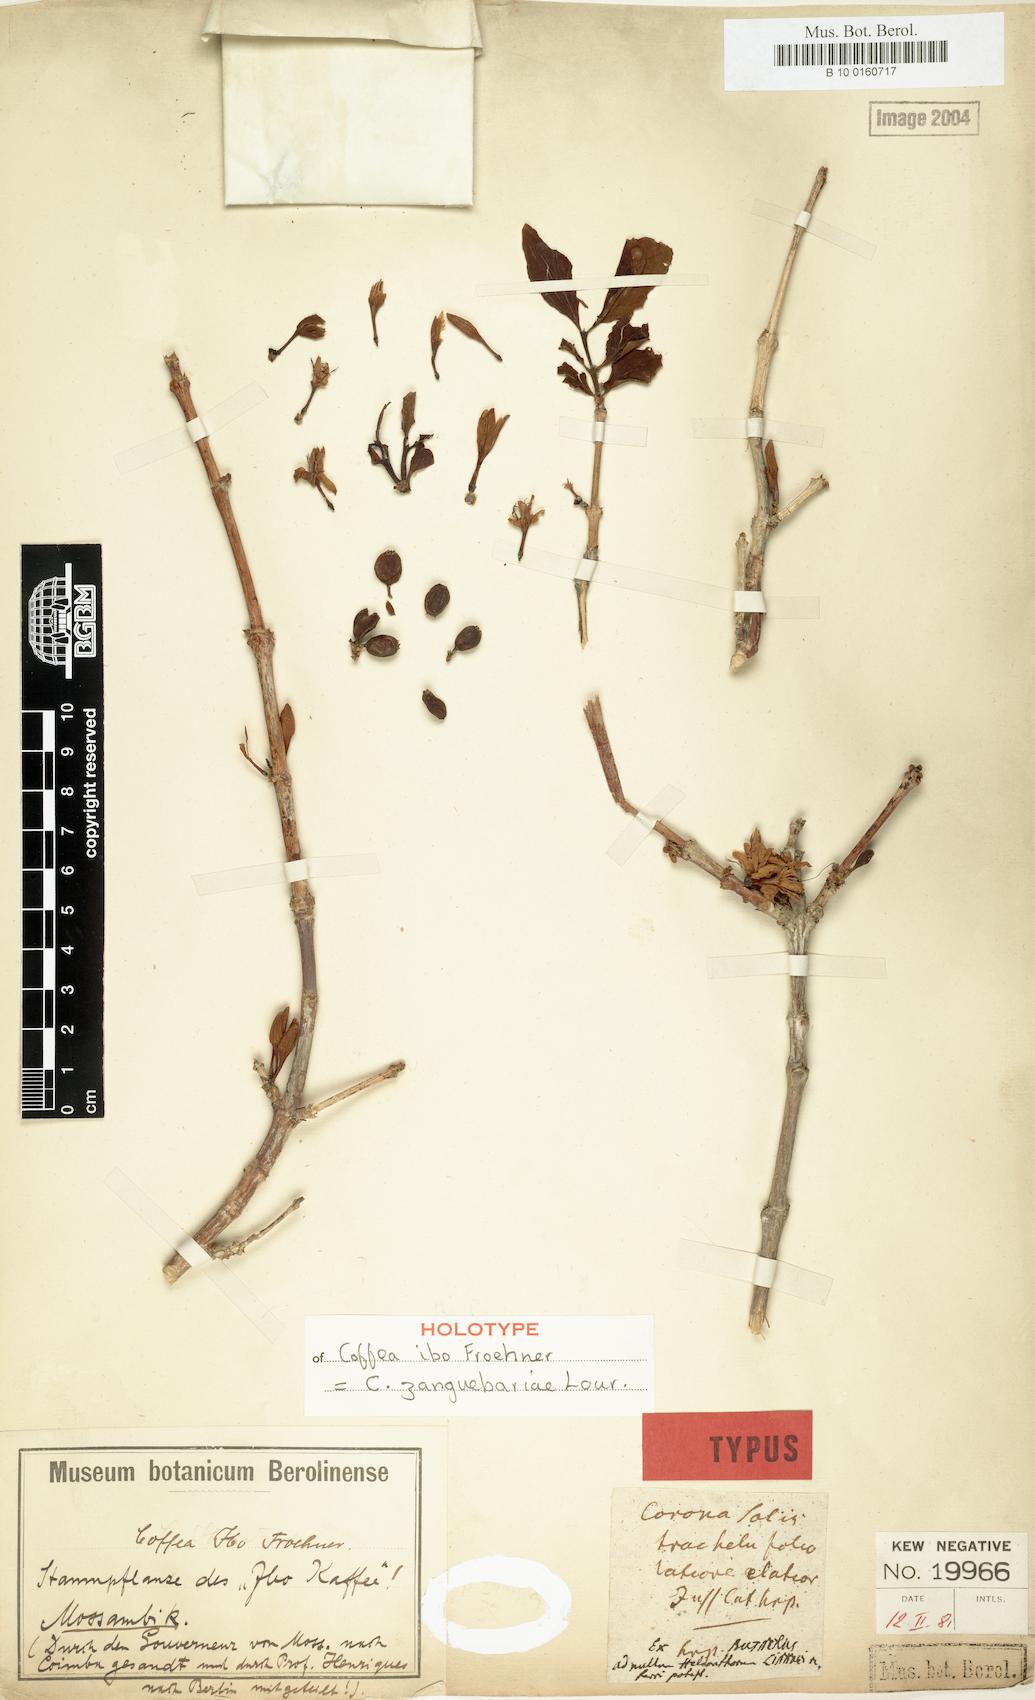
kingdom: Plantae
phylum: Tracheophyta
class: Magnoliopsida
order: Gentianales
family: Rubiaceae
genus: Coffea
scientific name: Coffea zanguebariae
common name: Zanzibar coffee
